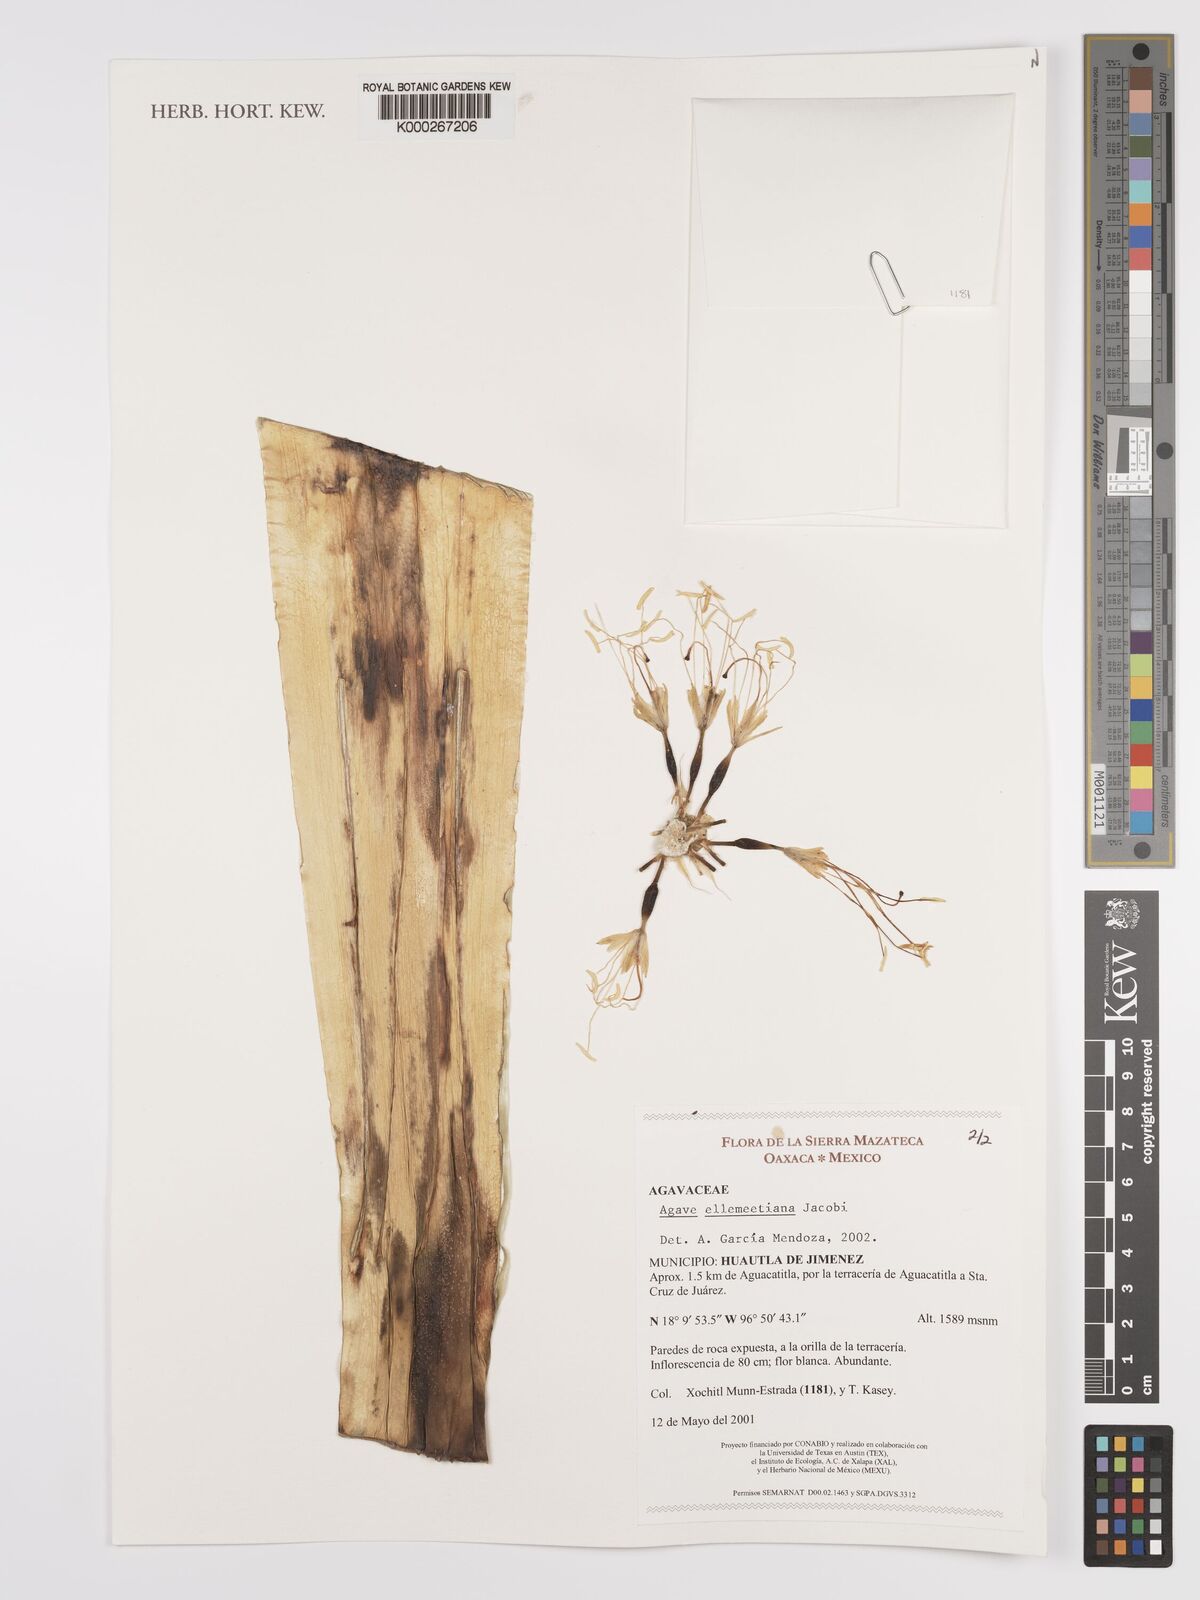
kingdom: Plantae
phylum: Tracheophyta
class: Liliopsida
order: Asparagales
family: Asparagaceae
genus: Agave
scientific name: Agave
